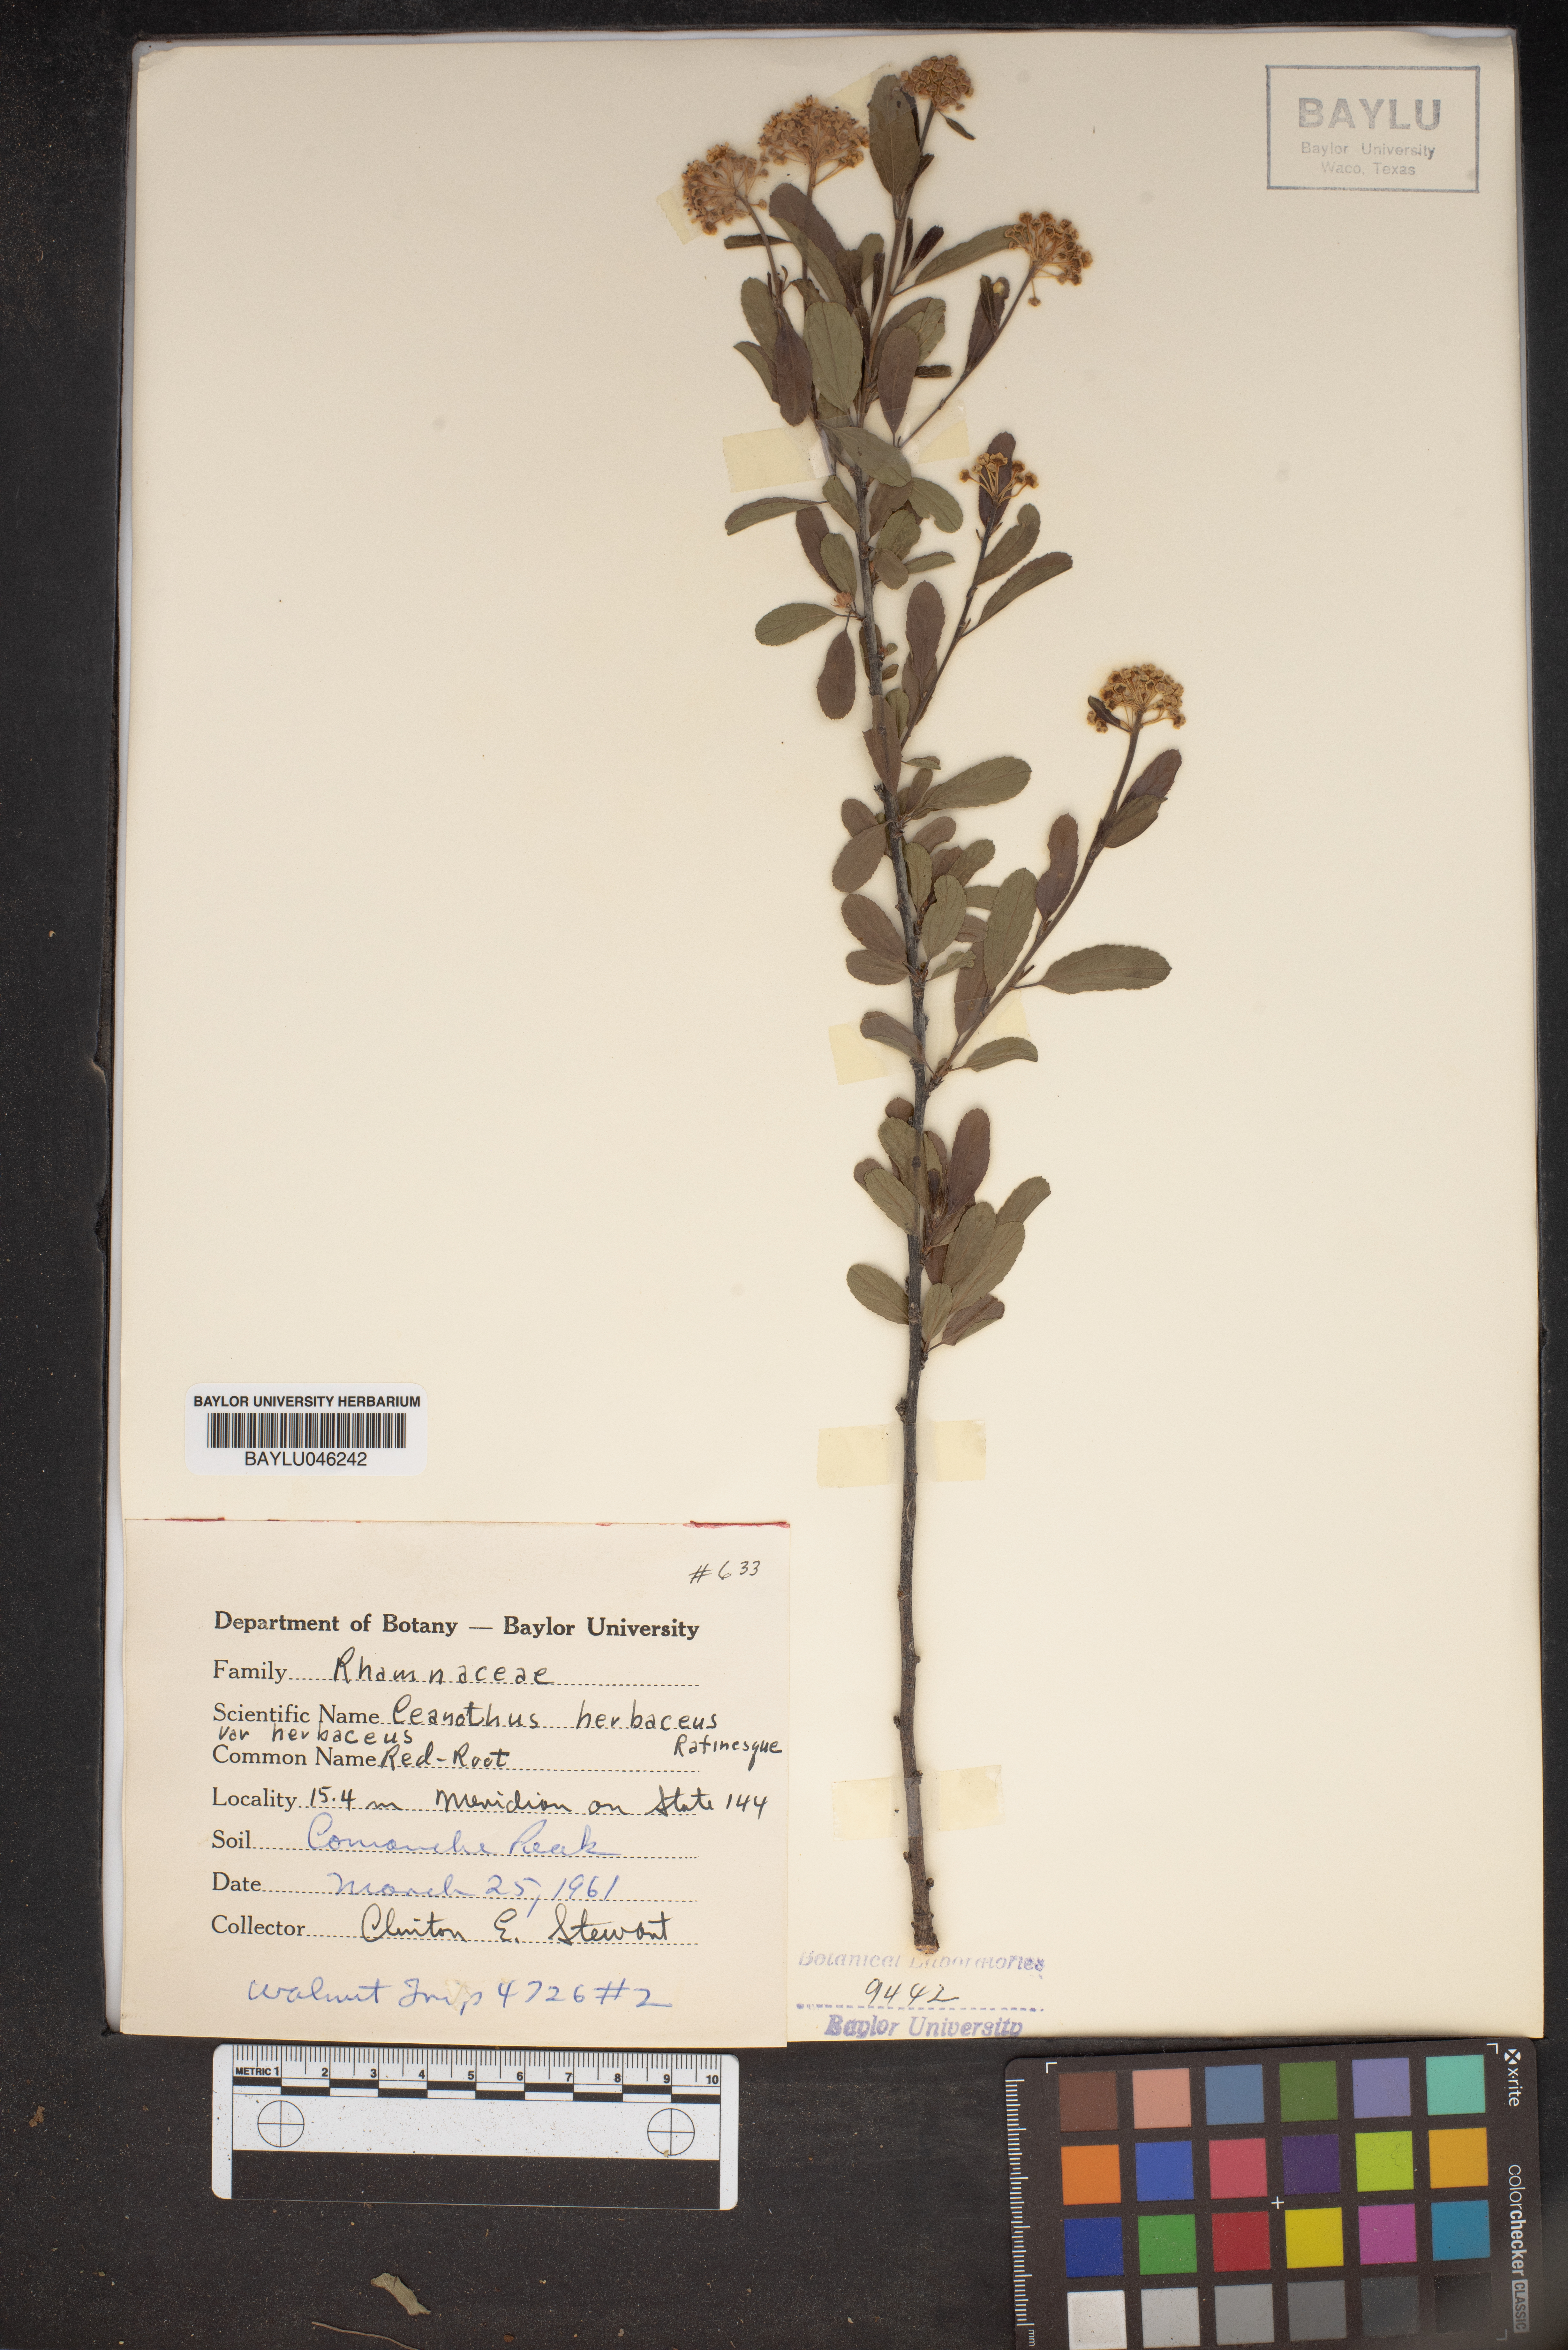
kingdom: Plantae
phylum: Tracheophyta
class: Magnoliopsida
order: Rosales
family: Rhamnaceae
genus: Ceanothus
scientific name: Ceanothus herbaceus
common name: Inland ceanothus
